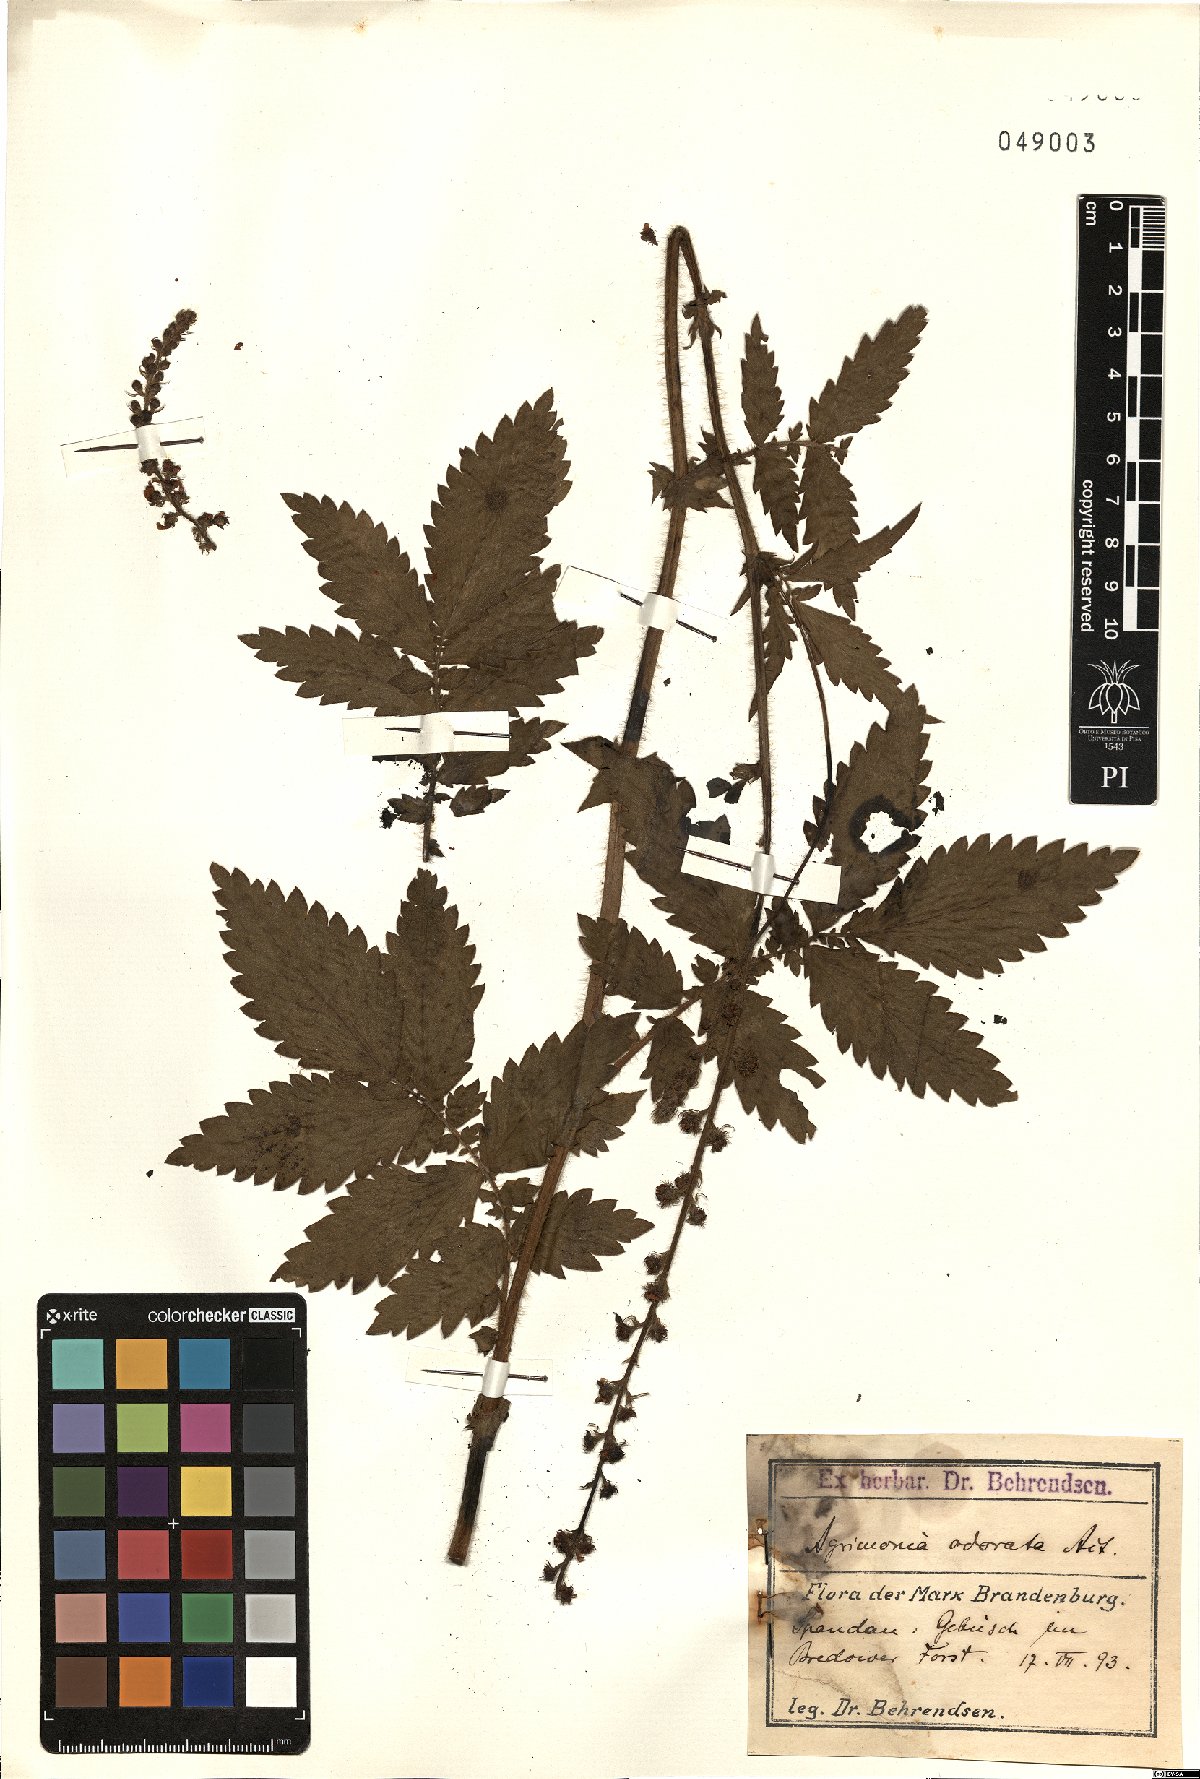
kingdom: Plantae
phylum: Tracheophyta
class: Magnoliopsida
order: Rosales
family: Rosaceae
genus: Agrimonia
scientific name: Agrimonia repens
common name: Creeping agrimony
